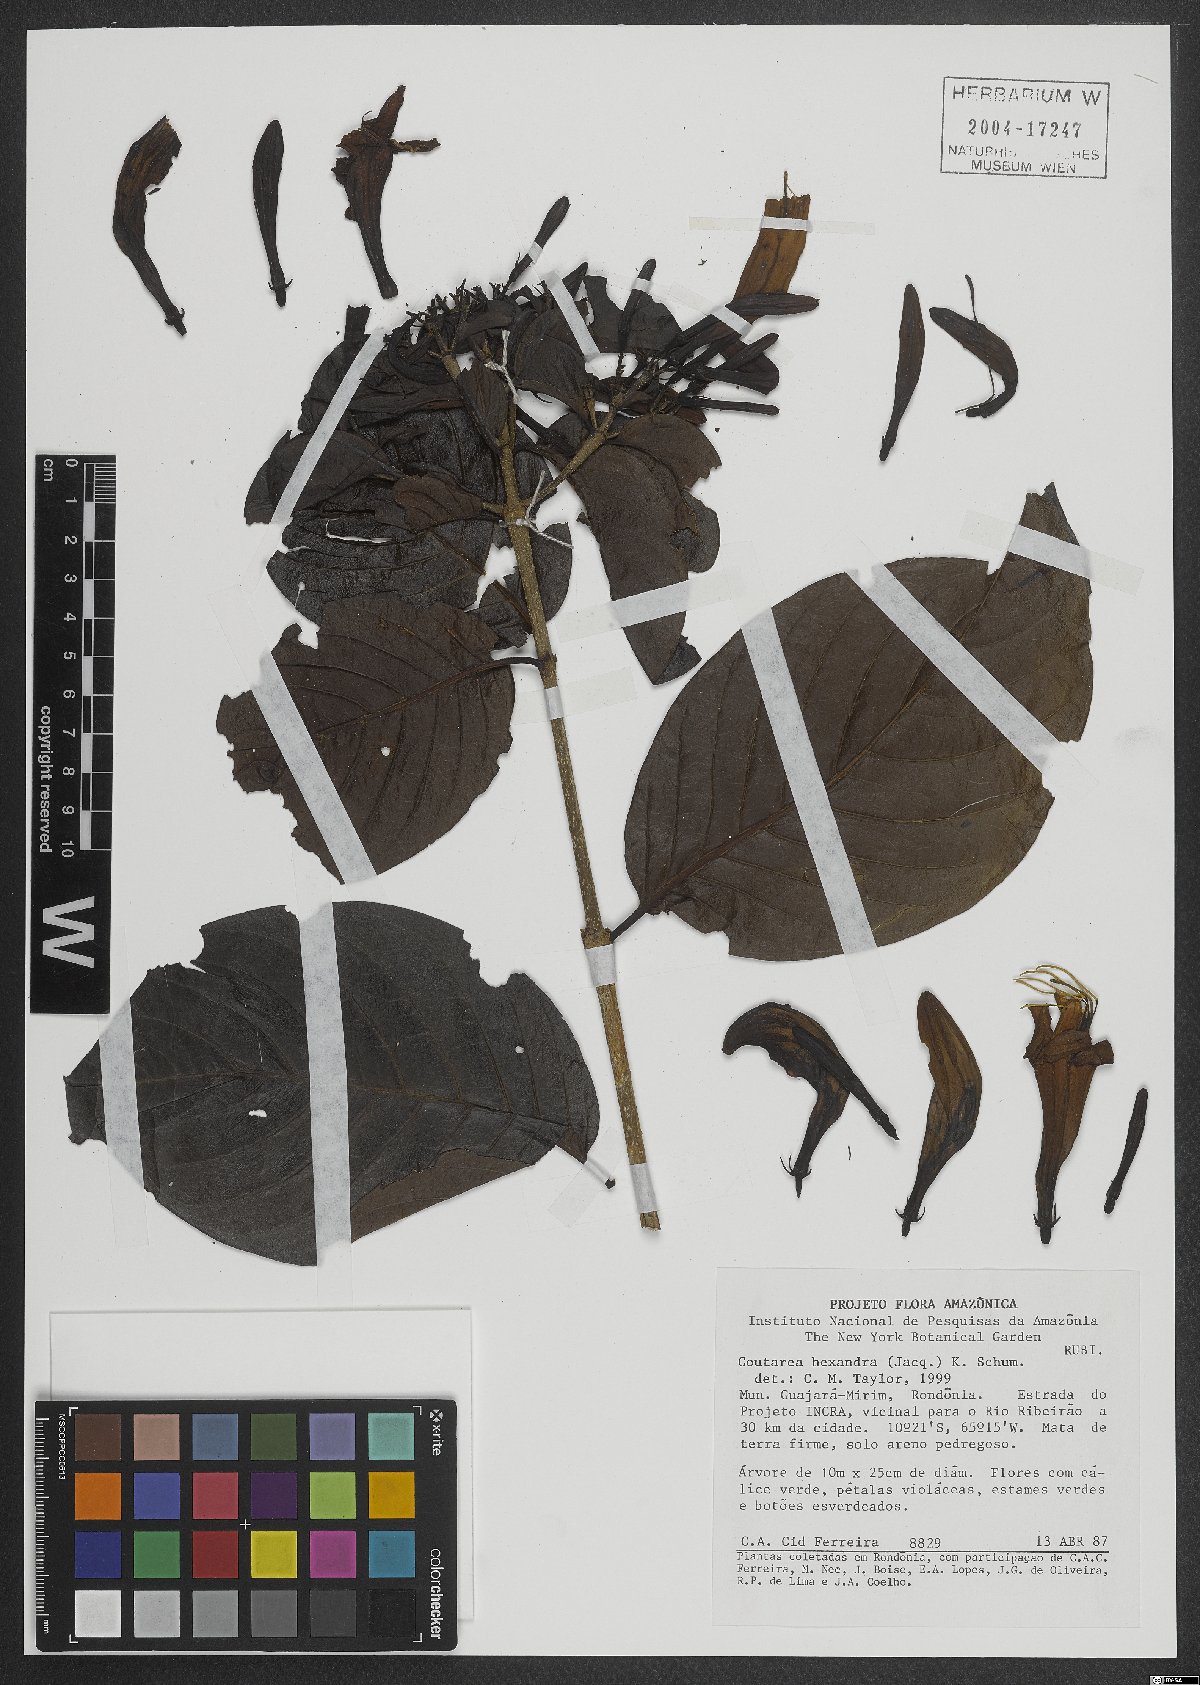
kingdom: Plantae
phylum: Tracheophyta
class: Magnoliopsida
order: Gentianales
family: Rubiaceae
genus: Coutarea
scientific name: Coutarea hexandra
